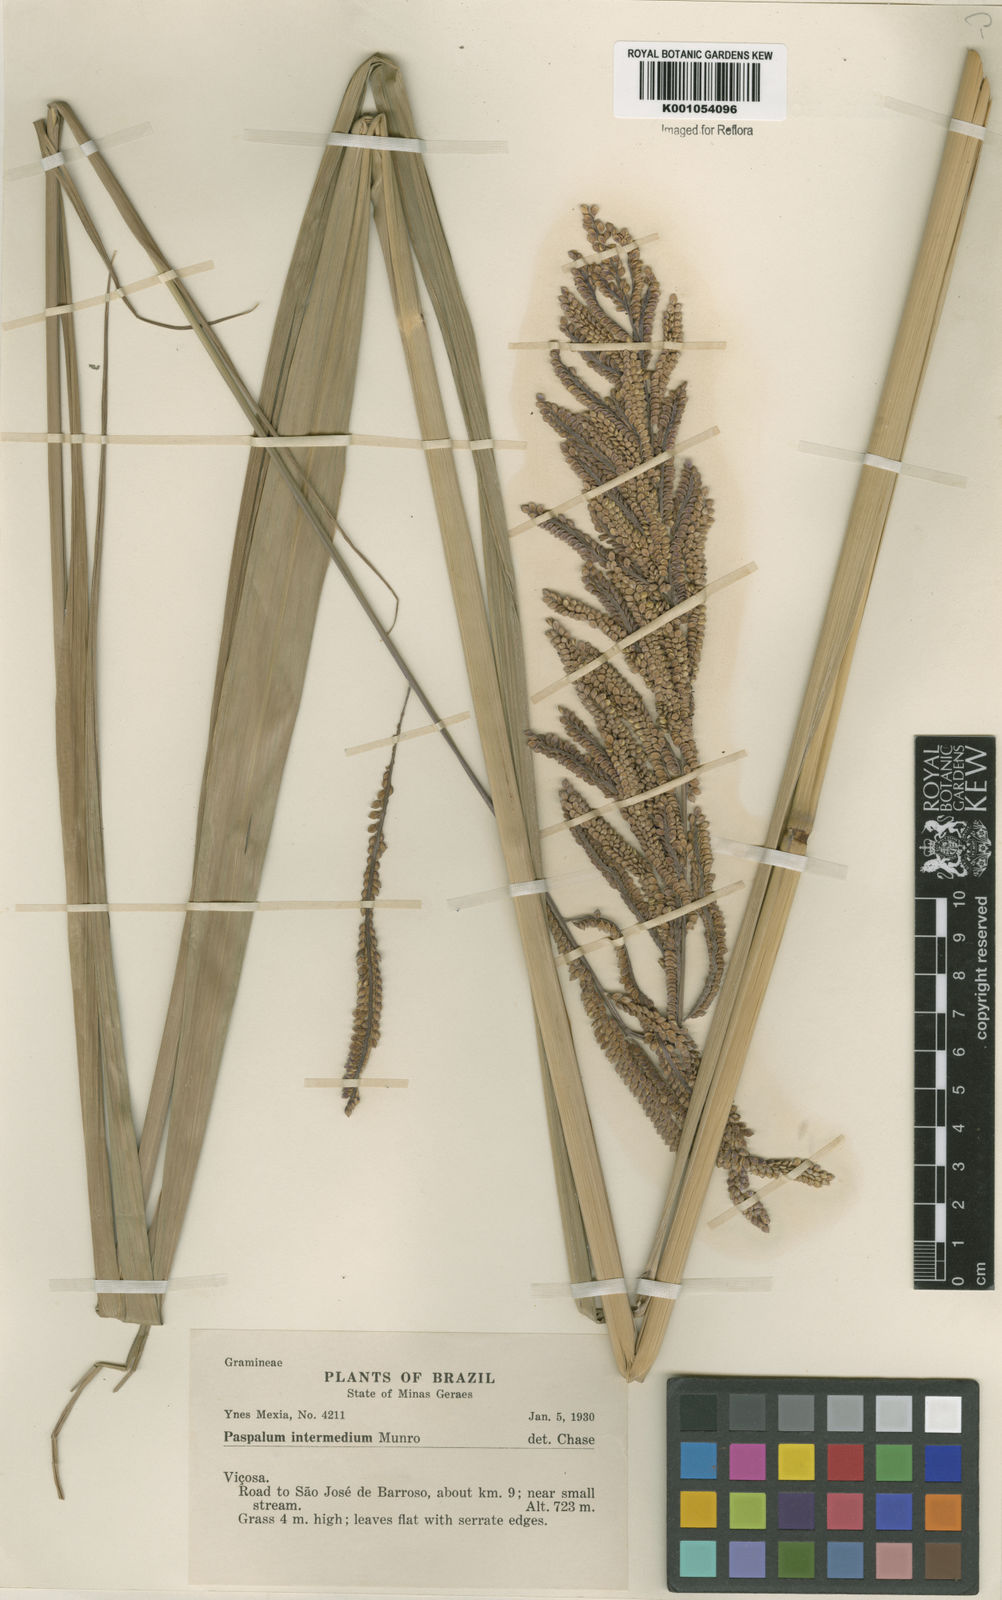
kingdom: Plantae
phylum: Tracheophyta
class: Liliopsida
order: Poales
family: Poaceae
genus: Paspalum
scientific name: Paspalum intermedium
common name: Intermediate paspalum
